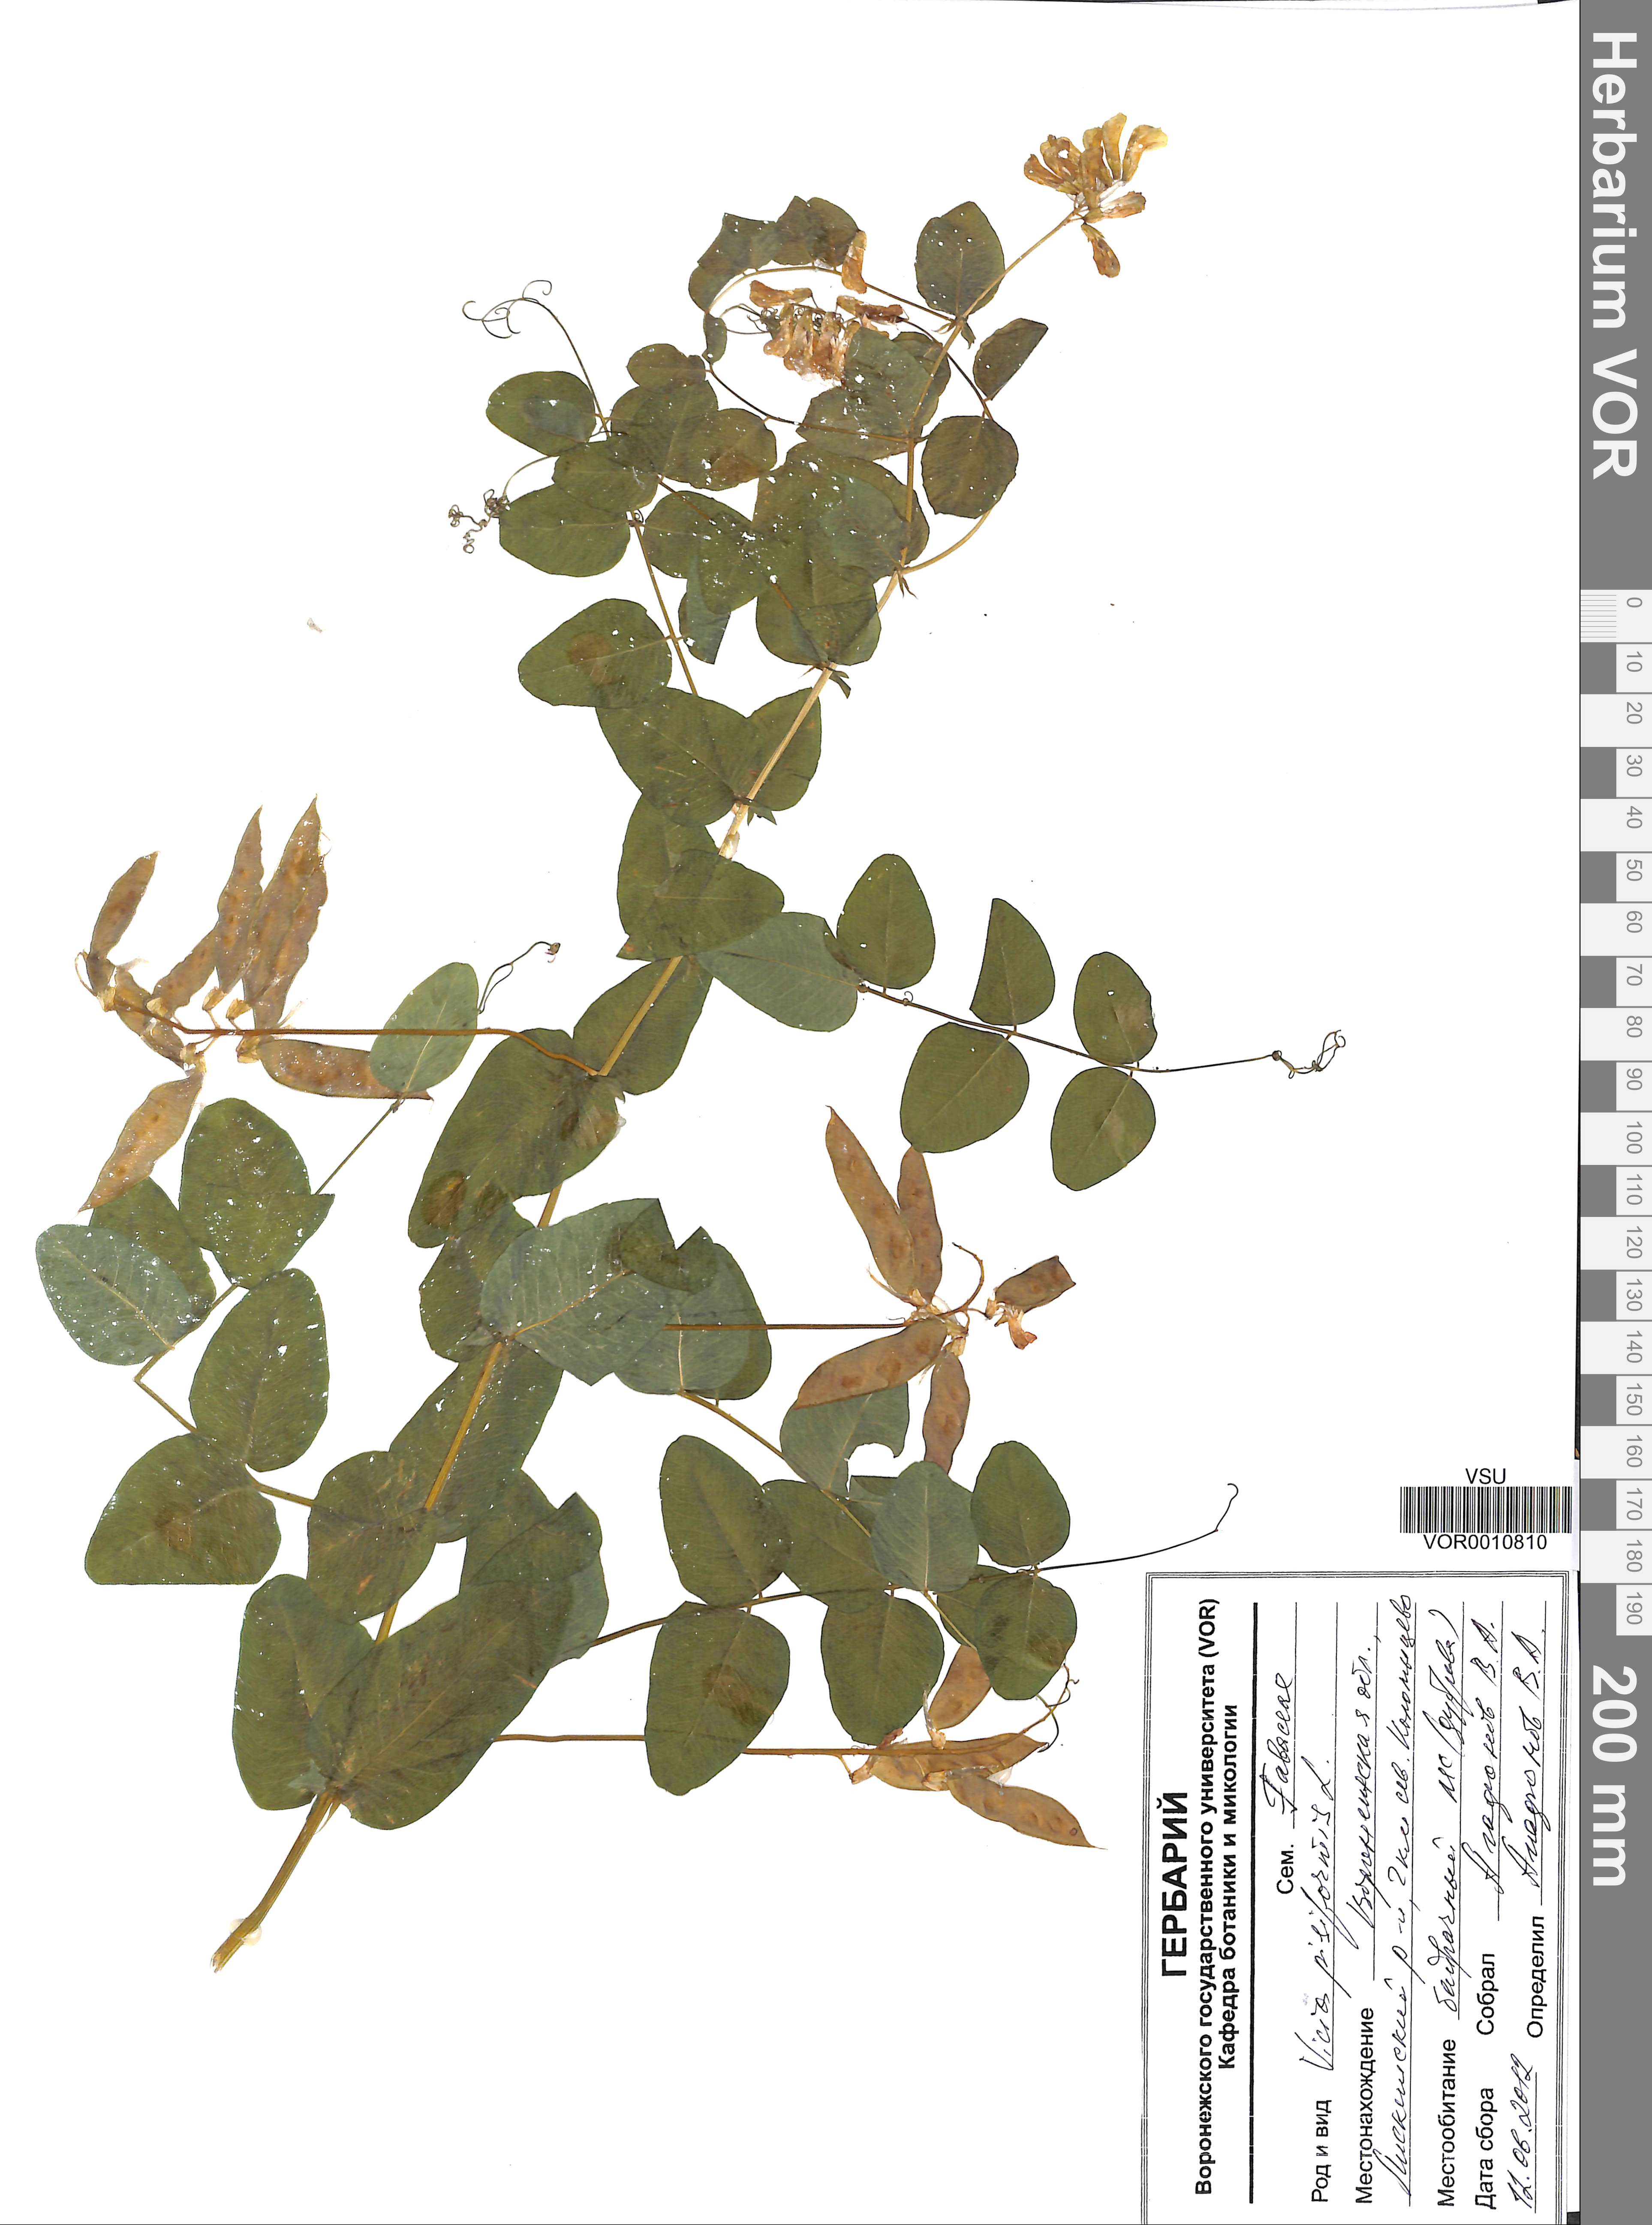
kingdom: Plantae
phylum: Tracheophyta
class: Magnoliopsida
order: Fabales
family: Fabaceae
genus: Vicia
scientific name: Vicia pisiformis
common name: Pale-flower vetch
